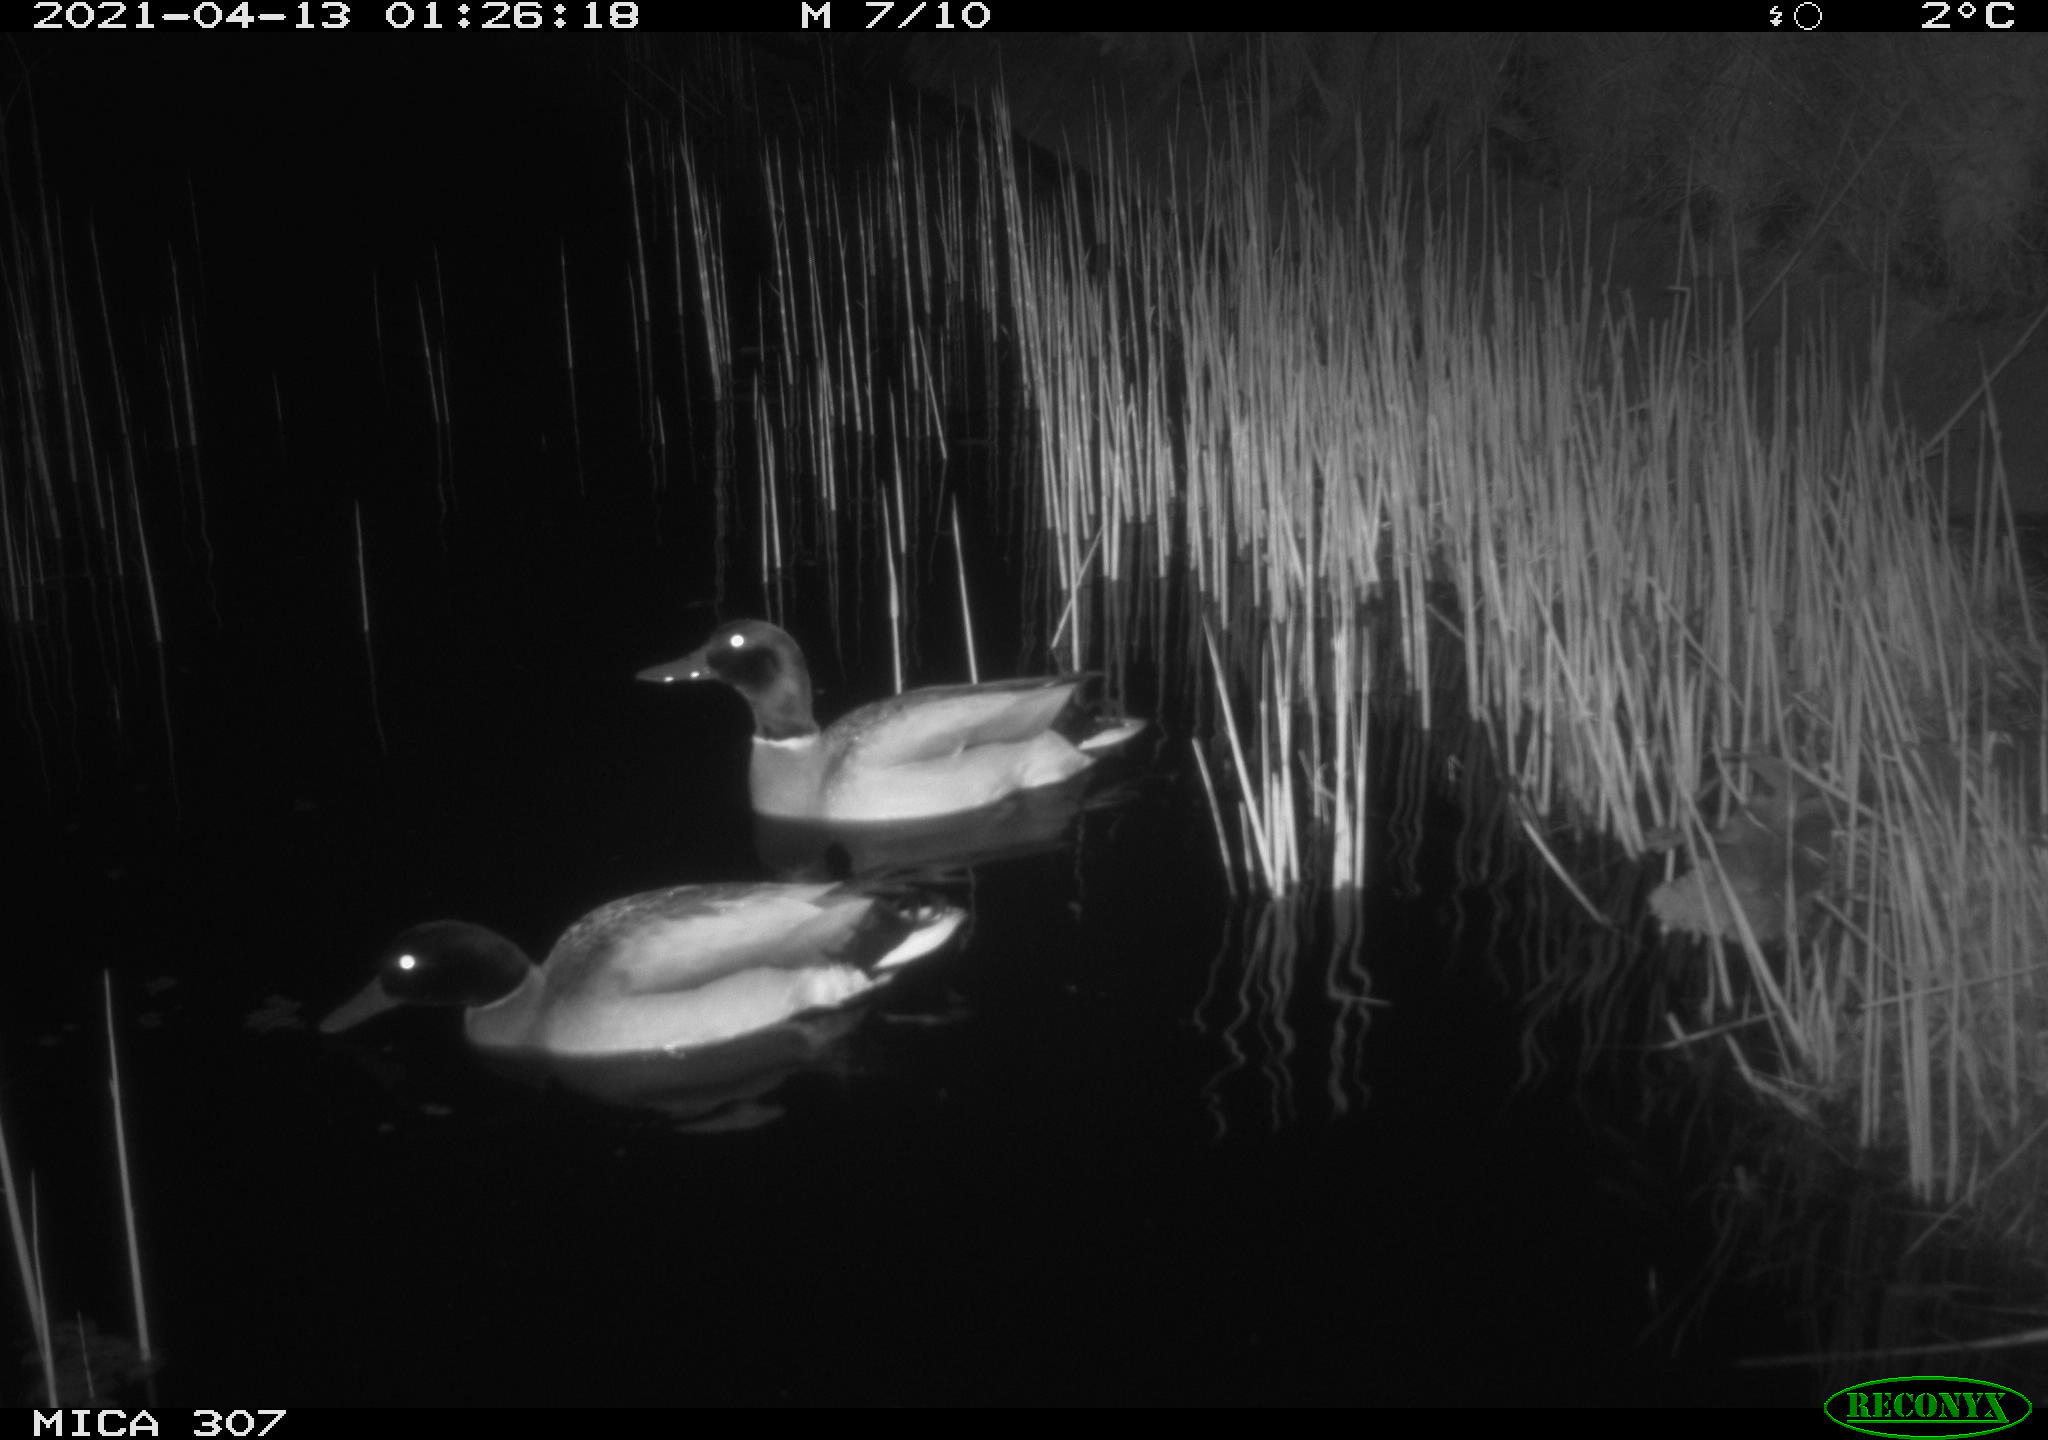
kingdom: Animalia
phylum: Chordata
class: Aves
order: Gruiformes
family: Rallidae
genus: Gallinula
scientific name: Gallinula chloropus
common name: Common moorhen
